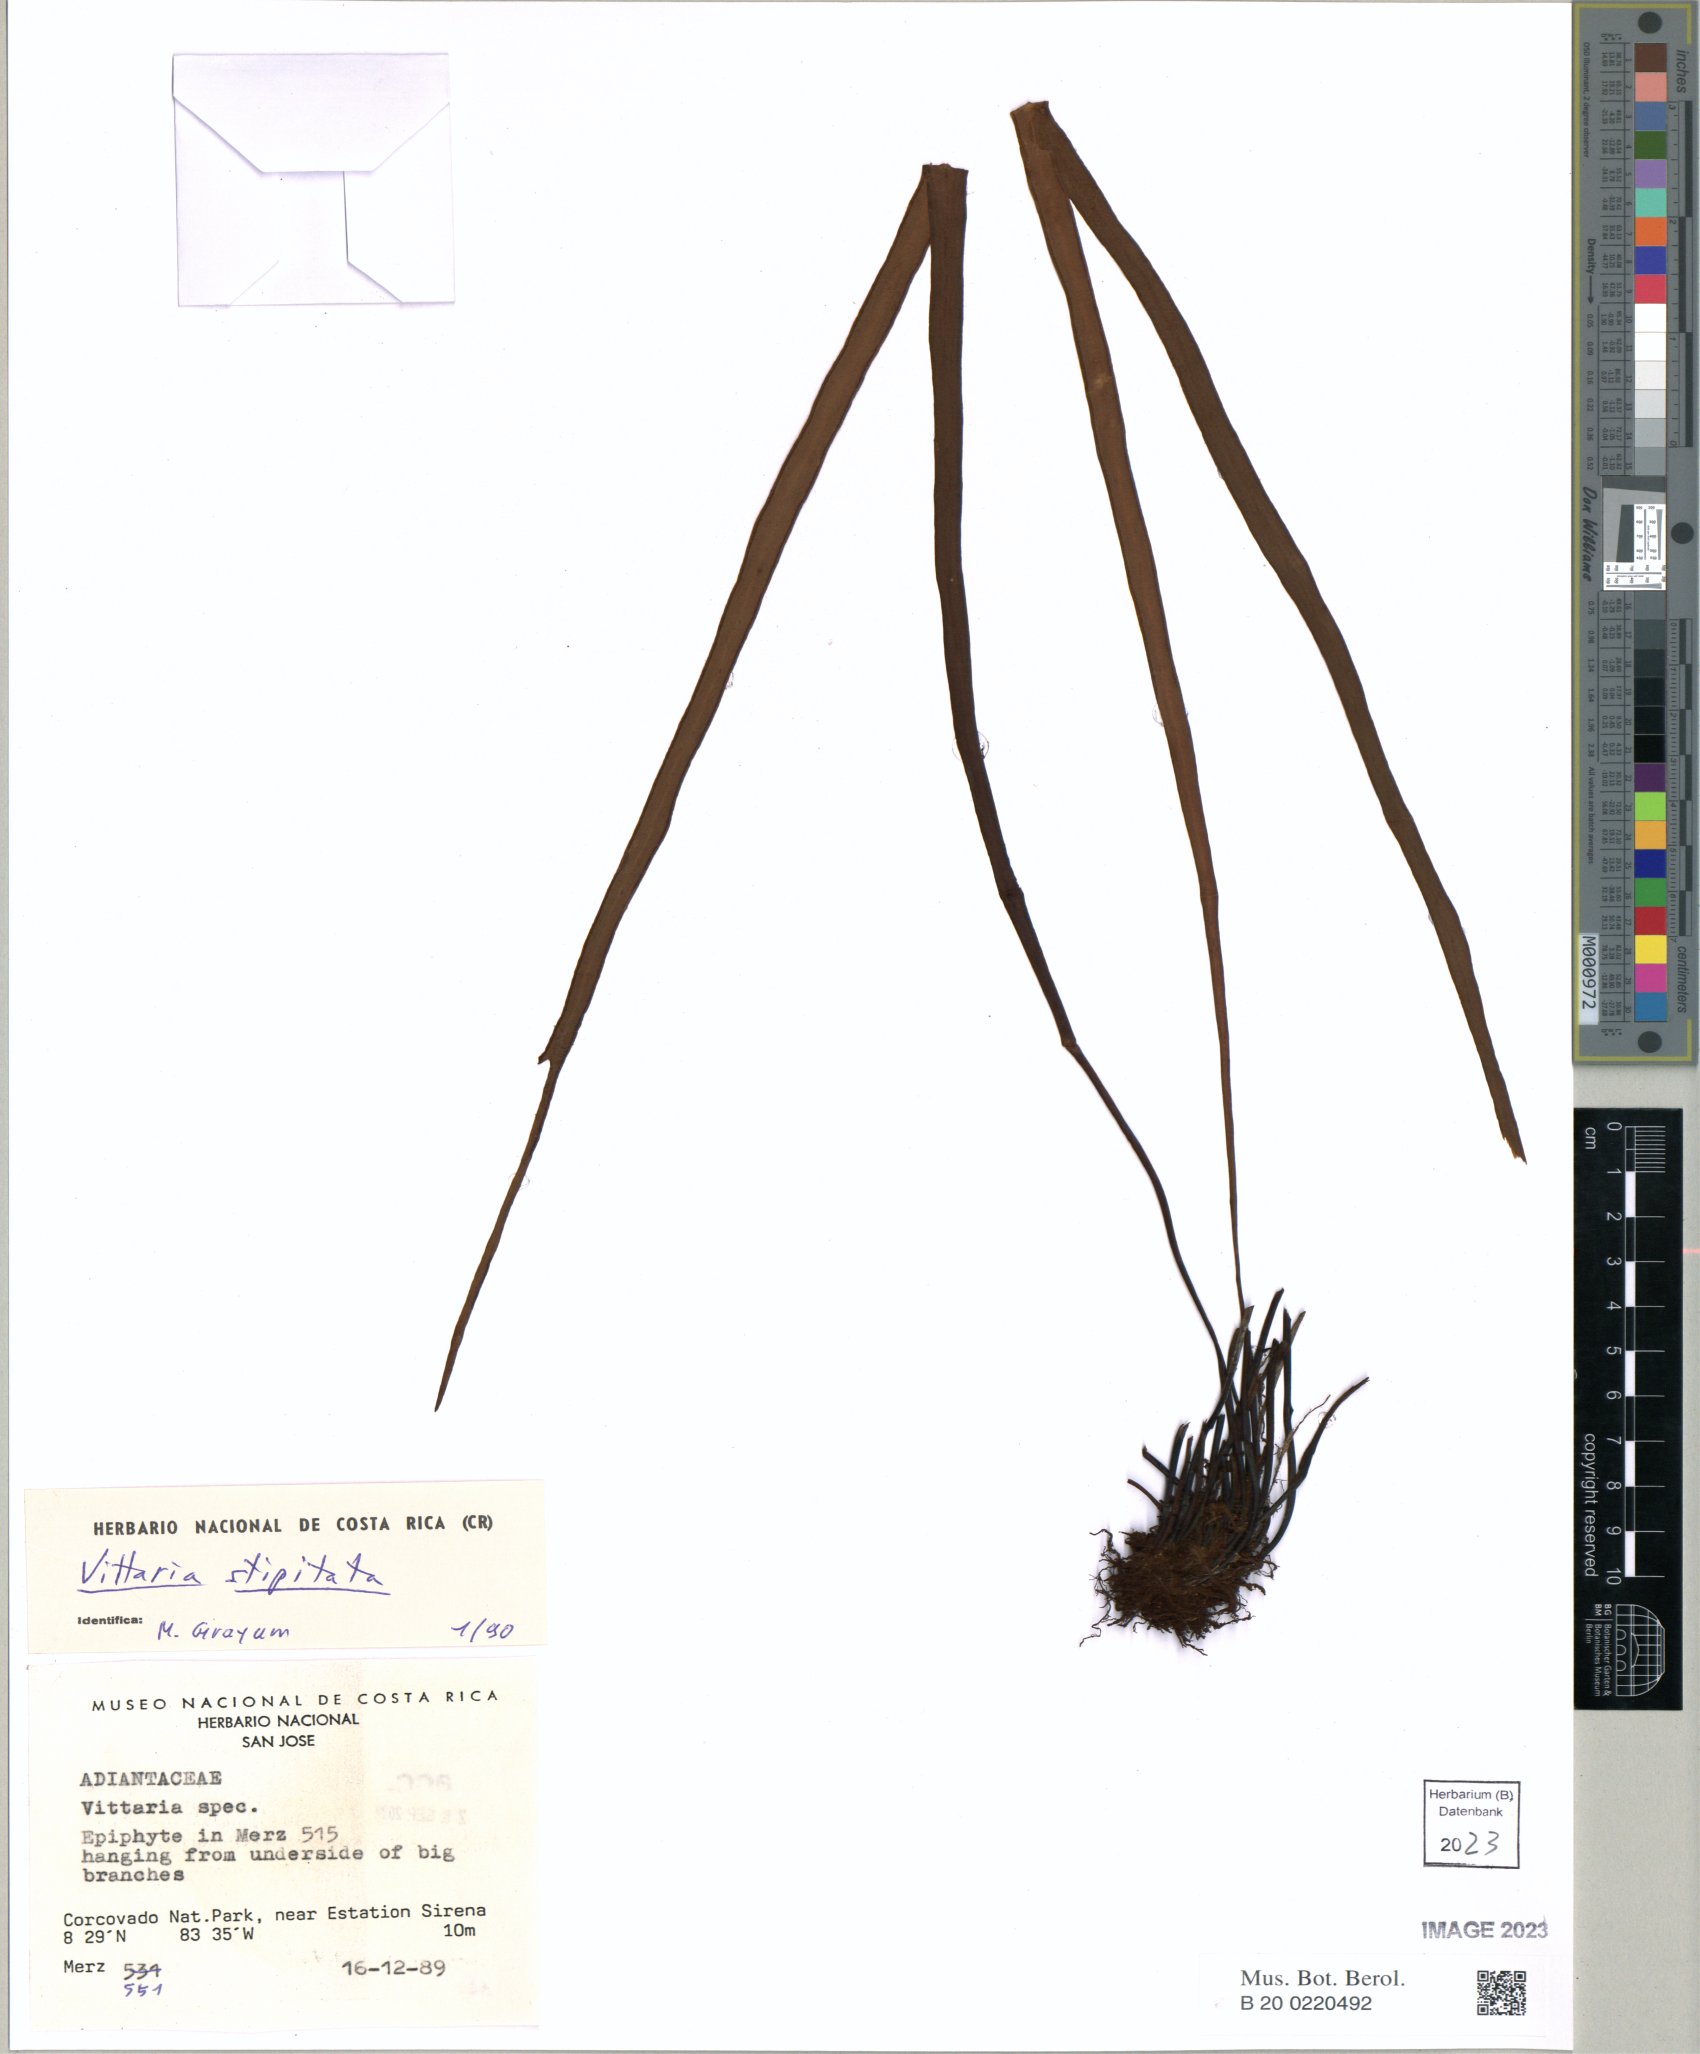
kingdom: Plantae
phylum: Tracheophyta
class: Polypodiopsida
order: Polypodiales
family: Pteridaceae
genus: Radiovittaria
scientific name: Radiovittaria stipitata
